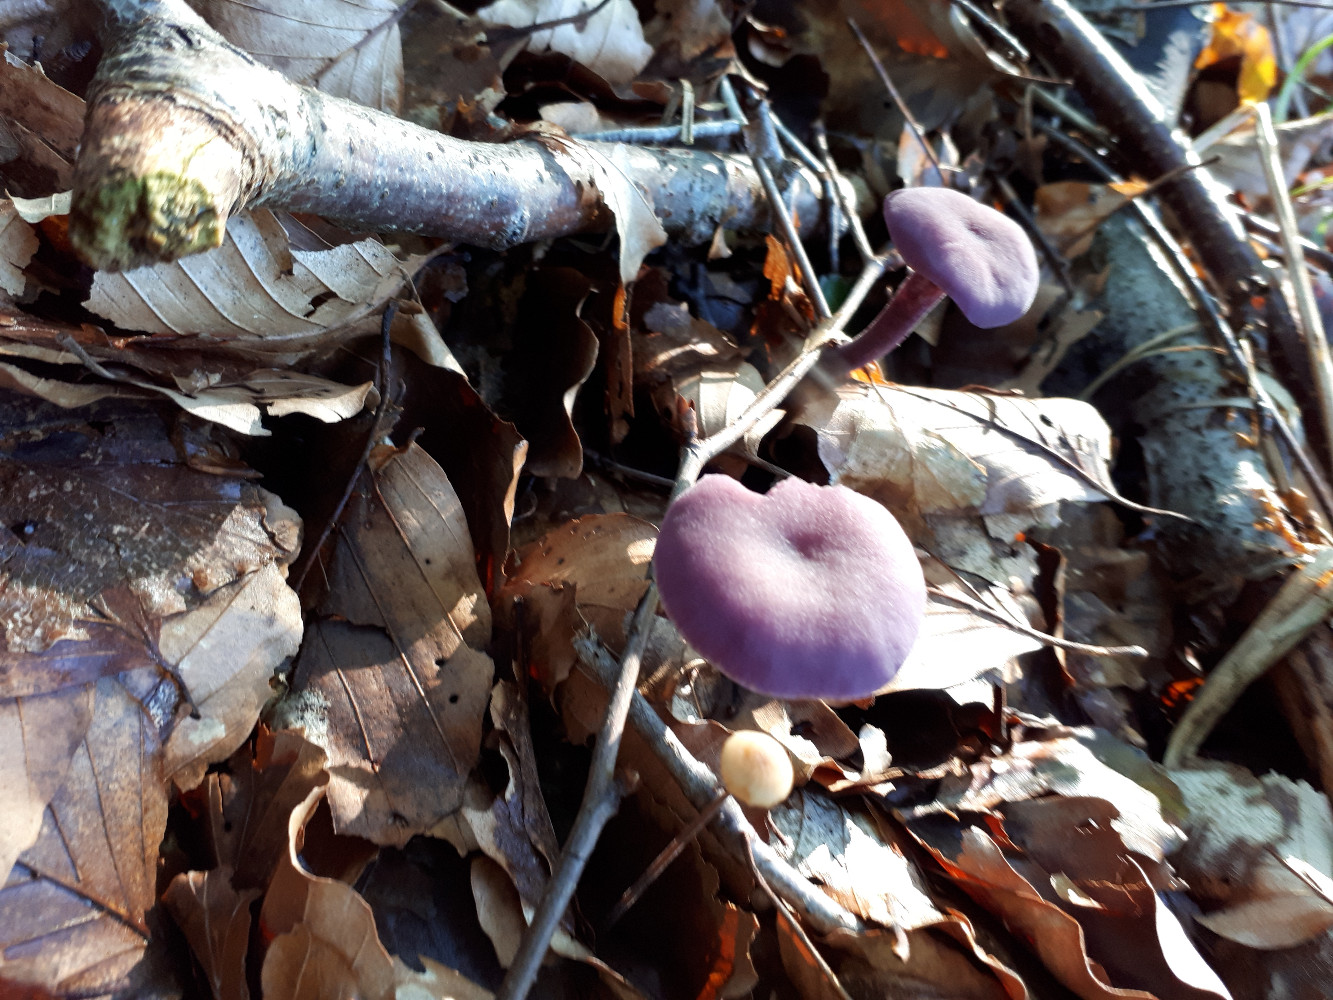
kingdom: Fungi
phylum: Basidiomycota
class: Agaricomycetes
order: Agaricales
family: Hydnangiaceae
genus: Laccaria
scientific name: Laccaria amethystina
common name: violet ametysthat
